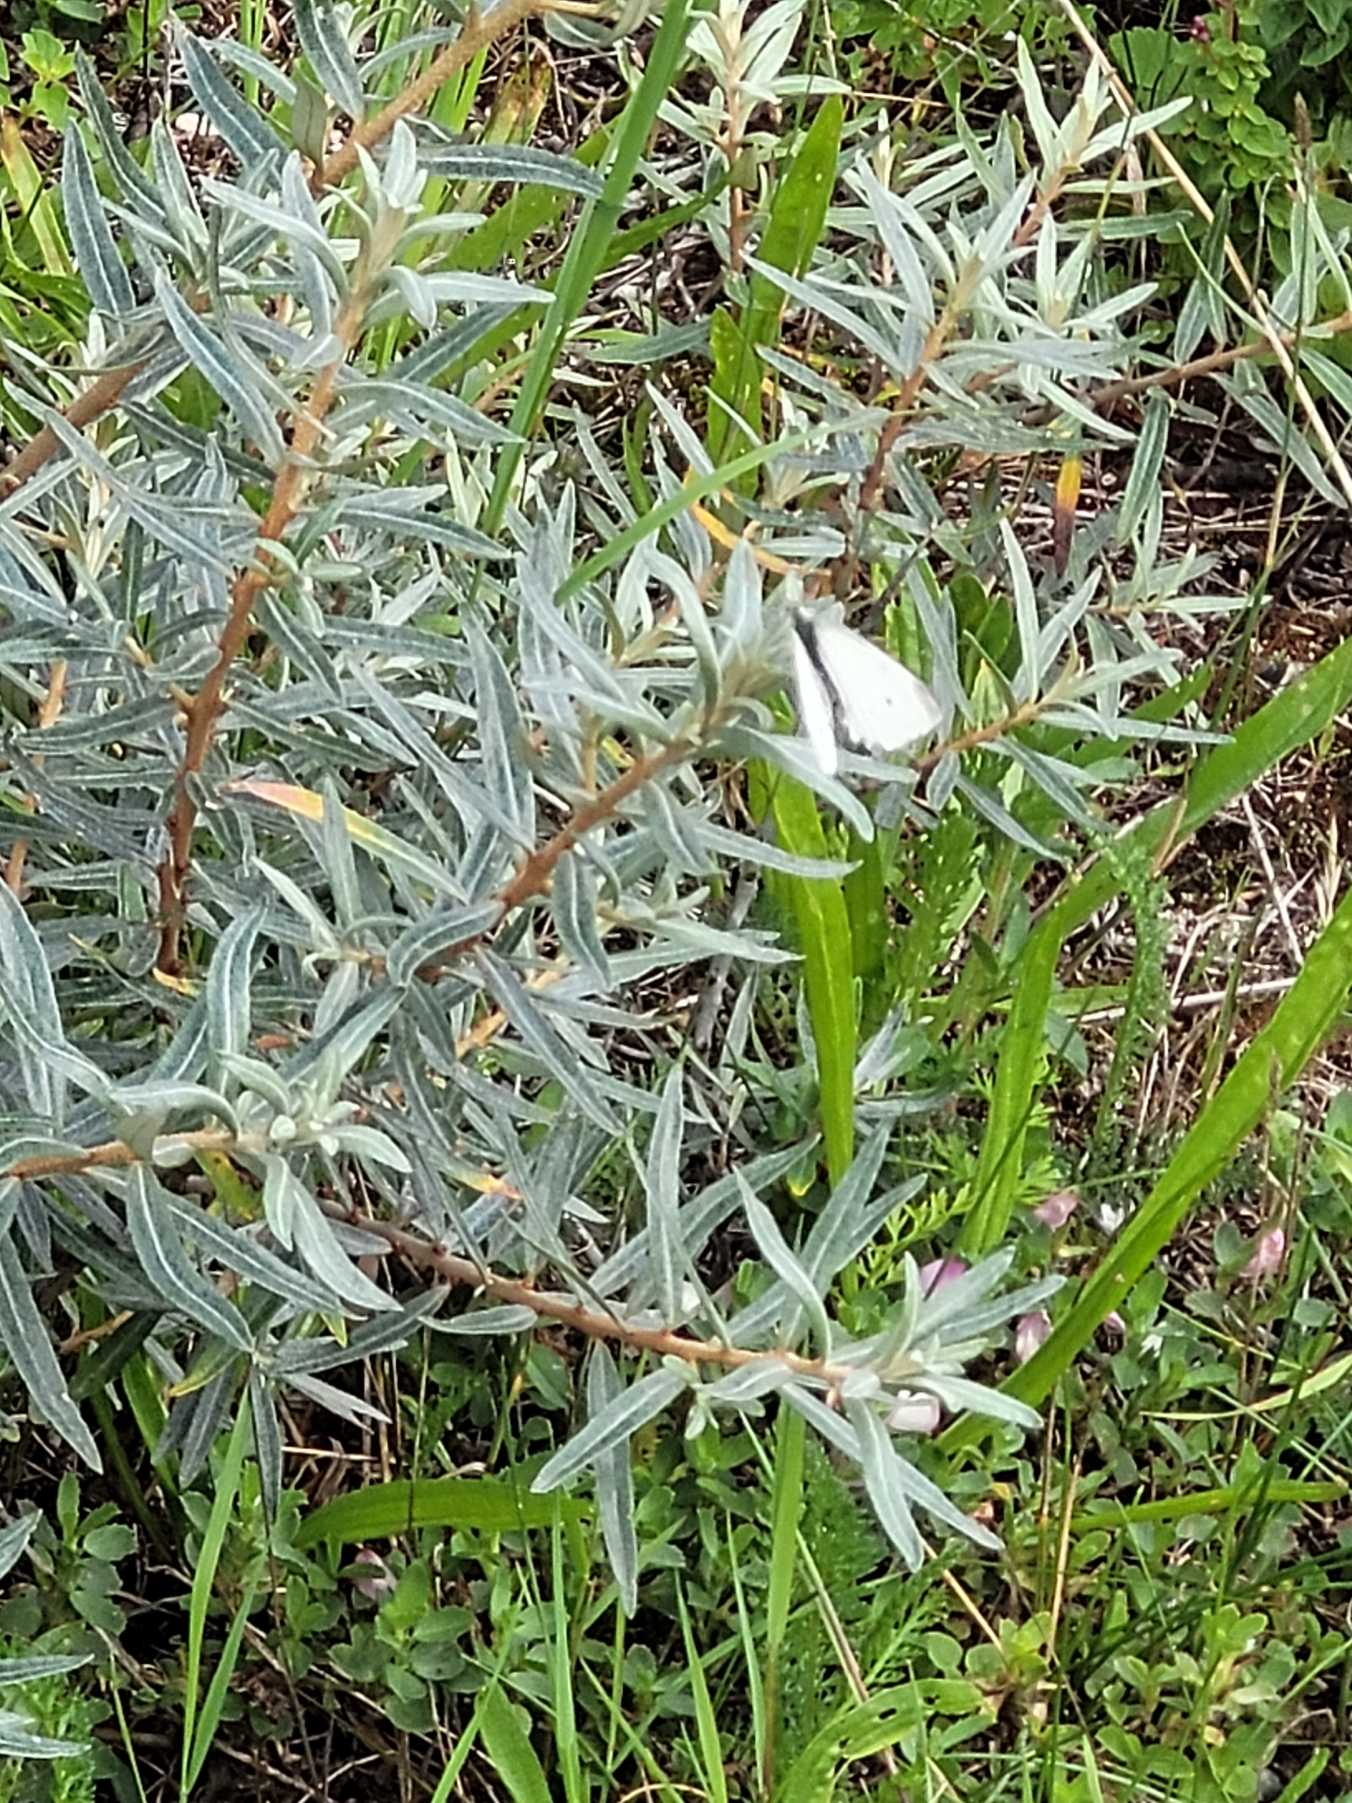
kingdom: Animalia
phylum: Arthropoda
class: Insecta
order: Lepidoptera
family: Pieridae
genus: Pieris
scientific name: Pieris rapae
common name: Lille kålsommerfugl
